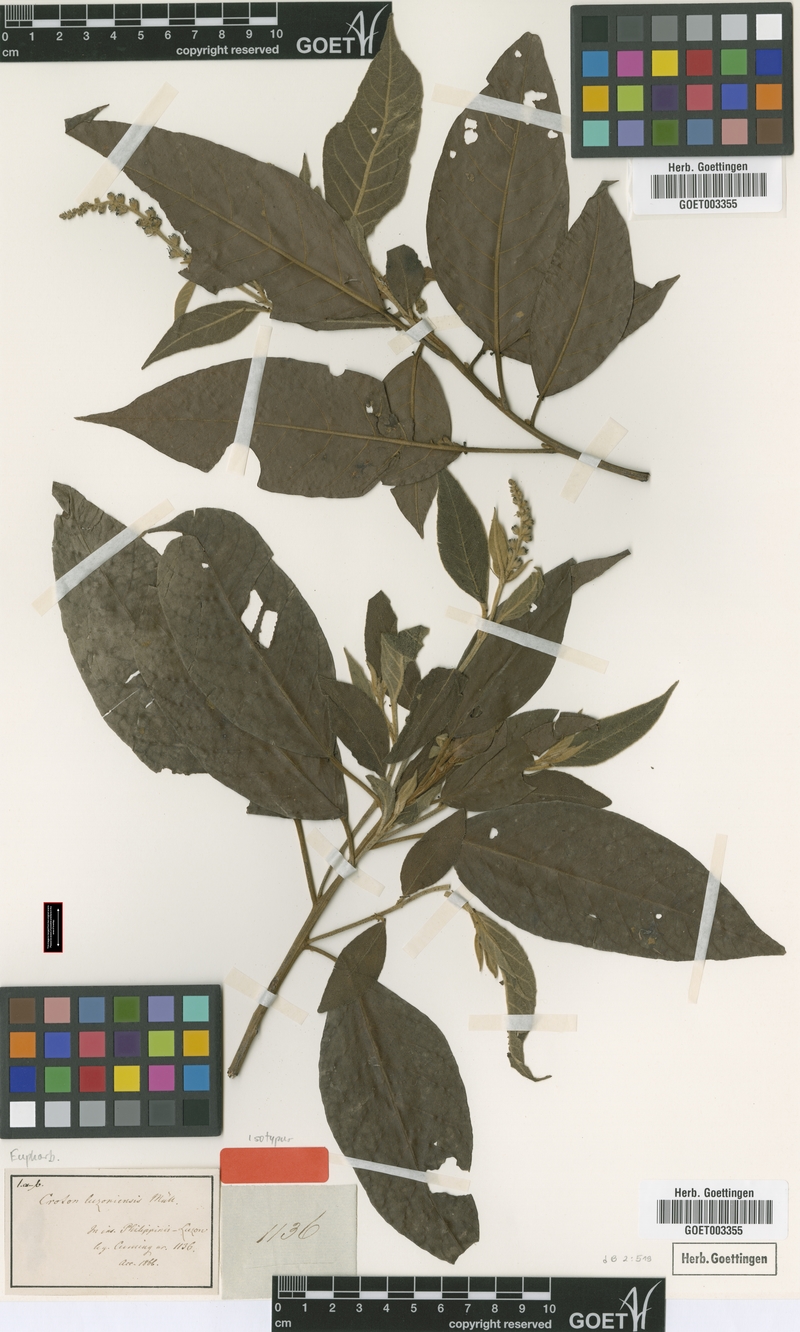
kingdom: Plantae
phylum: Tracheophyta
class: Magnoliopsida
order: Malpighiales
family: Euphorbiaceae
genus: Croton
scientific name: Croton luzoniensis
